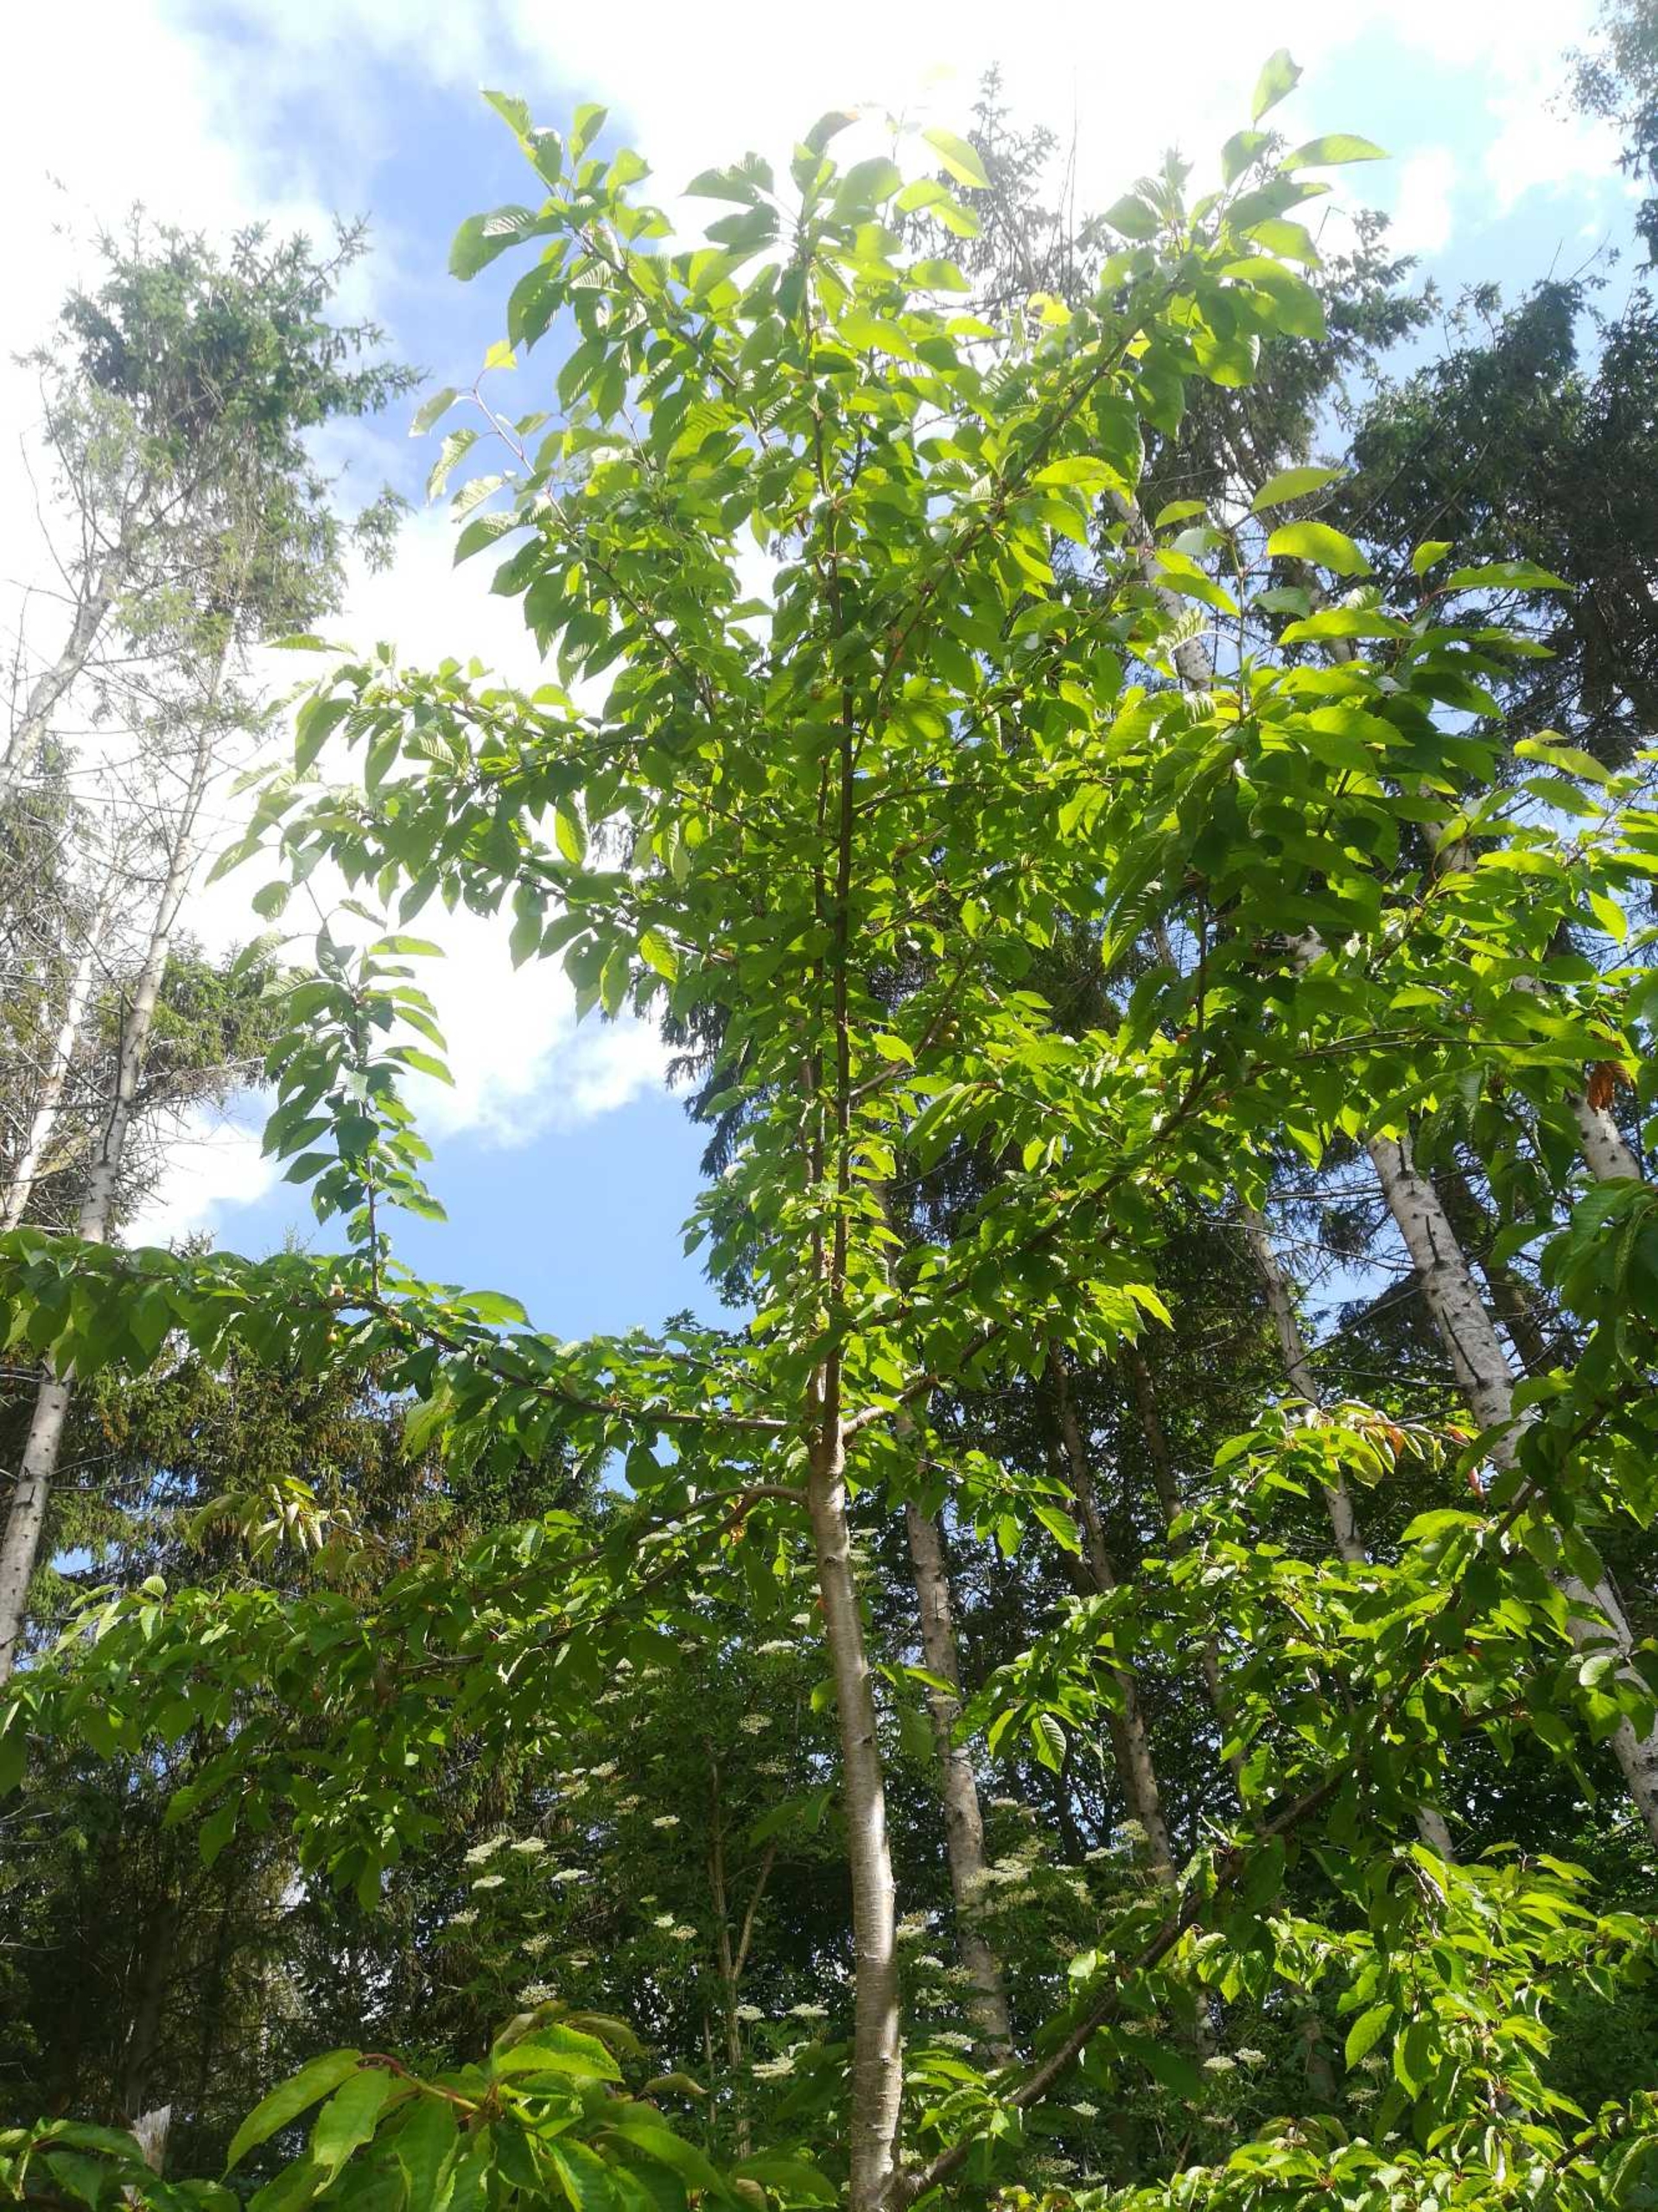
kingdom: Plantae
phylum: Tracheophyta
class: Magnoliopsida
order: Rosales
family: Rosaceae
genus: Prunus
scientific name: Prunus avium
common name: Fugle-kirsebær
